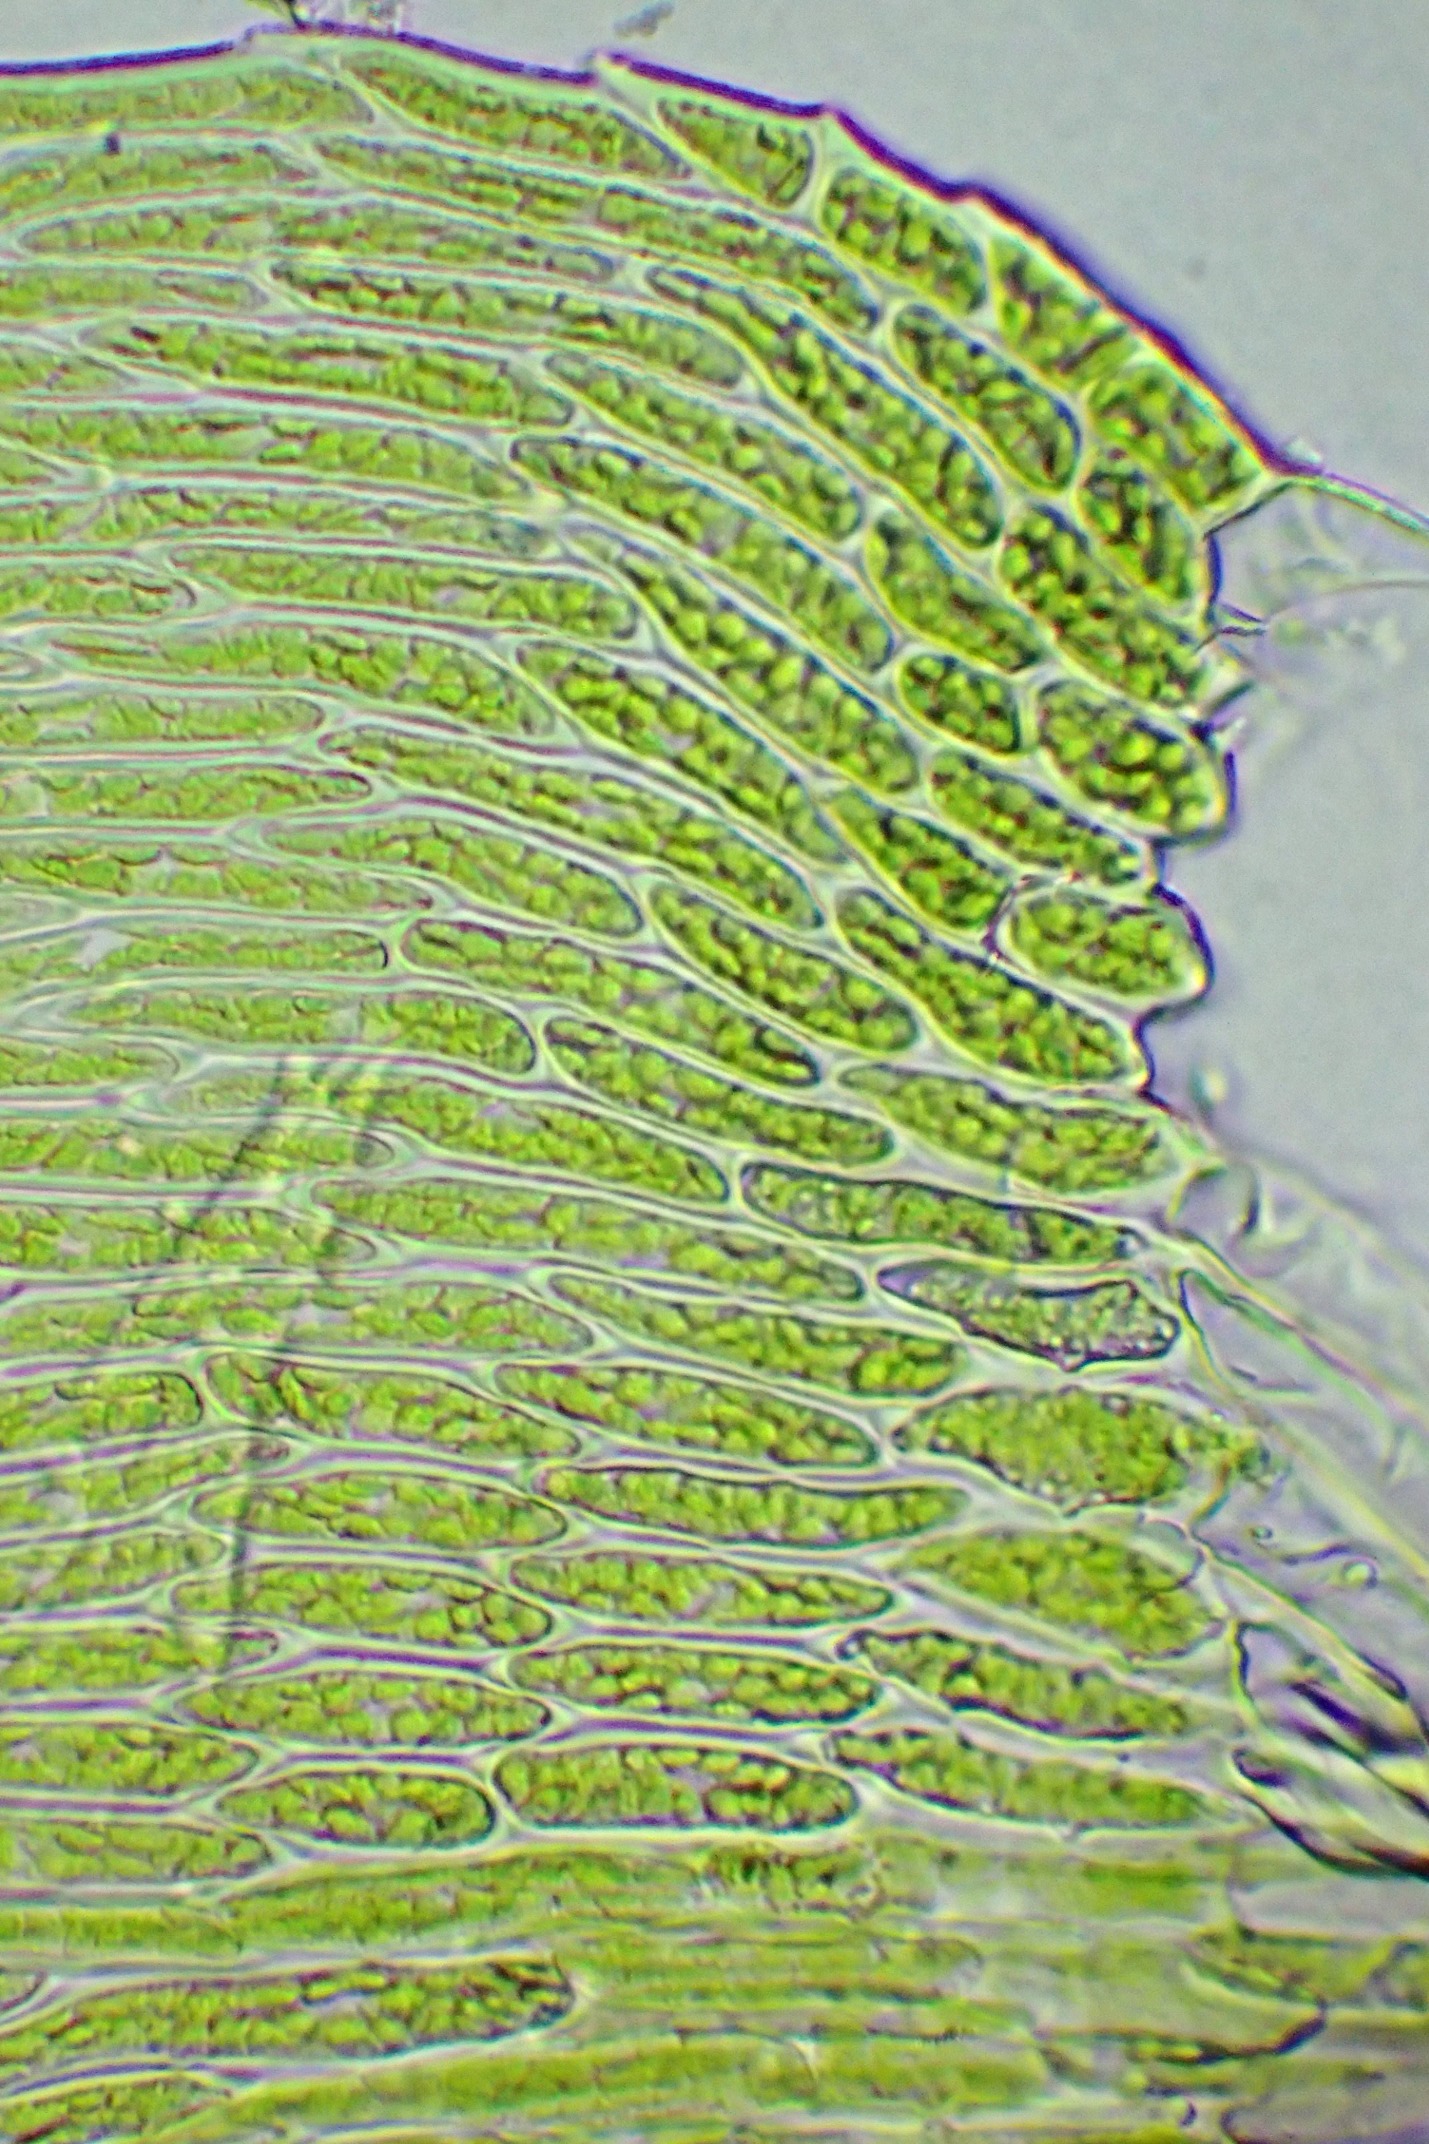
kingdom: Plantae
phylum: Bryophyta
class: Bryopsida
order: Hypnales
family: Plagiotheciaceae
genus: Herzogiella
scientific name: Herzogiella seligeri
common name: Stub-pølsekapsel
